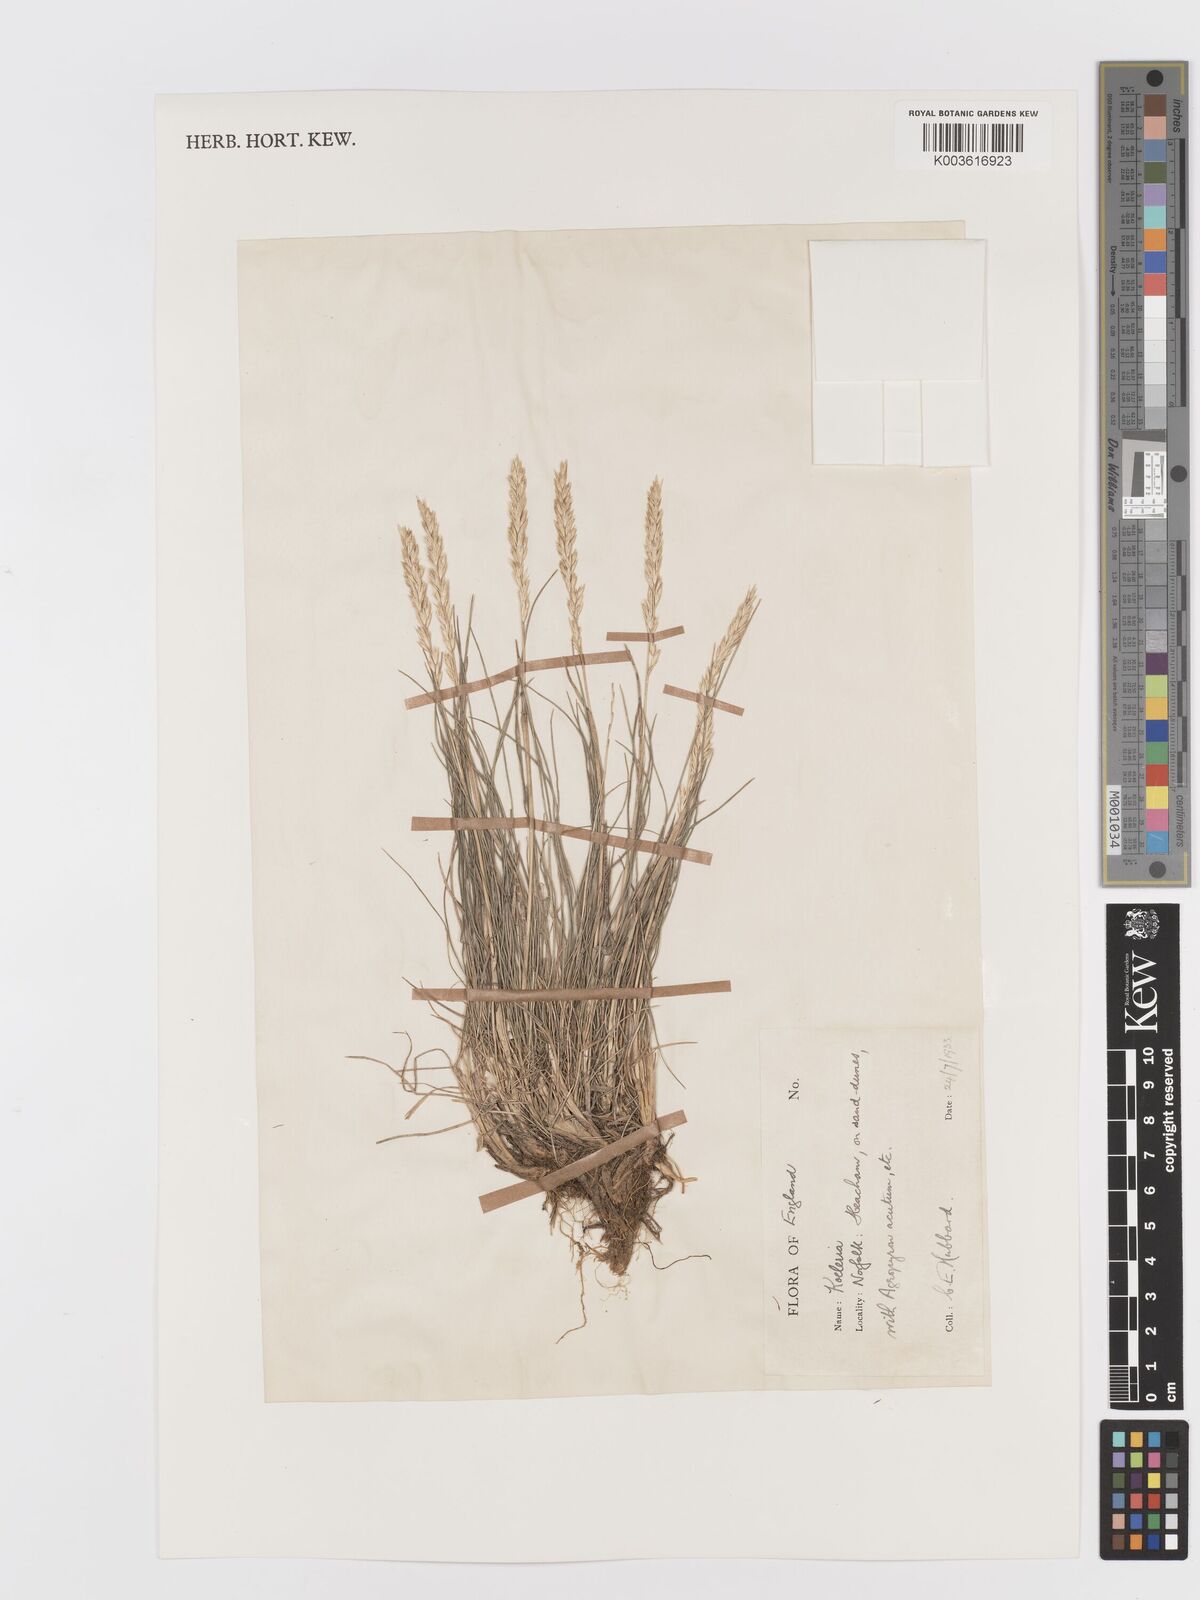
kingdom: Plantae
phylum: Tracheophyta
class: Liliopsida
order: Poales
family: Poaceae
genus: Koeleria
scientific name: Koeleria macrantha
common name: Crested hair-grass
